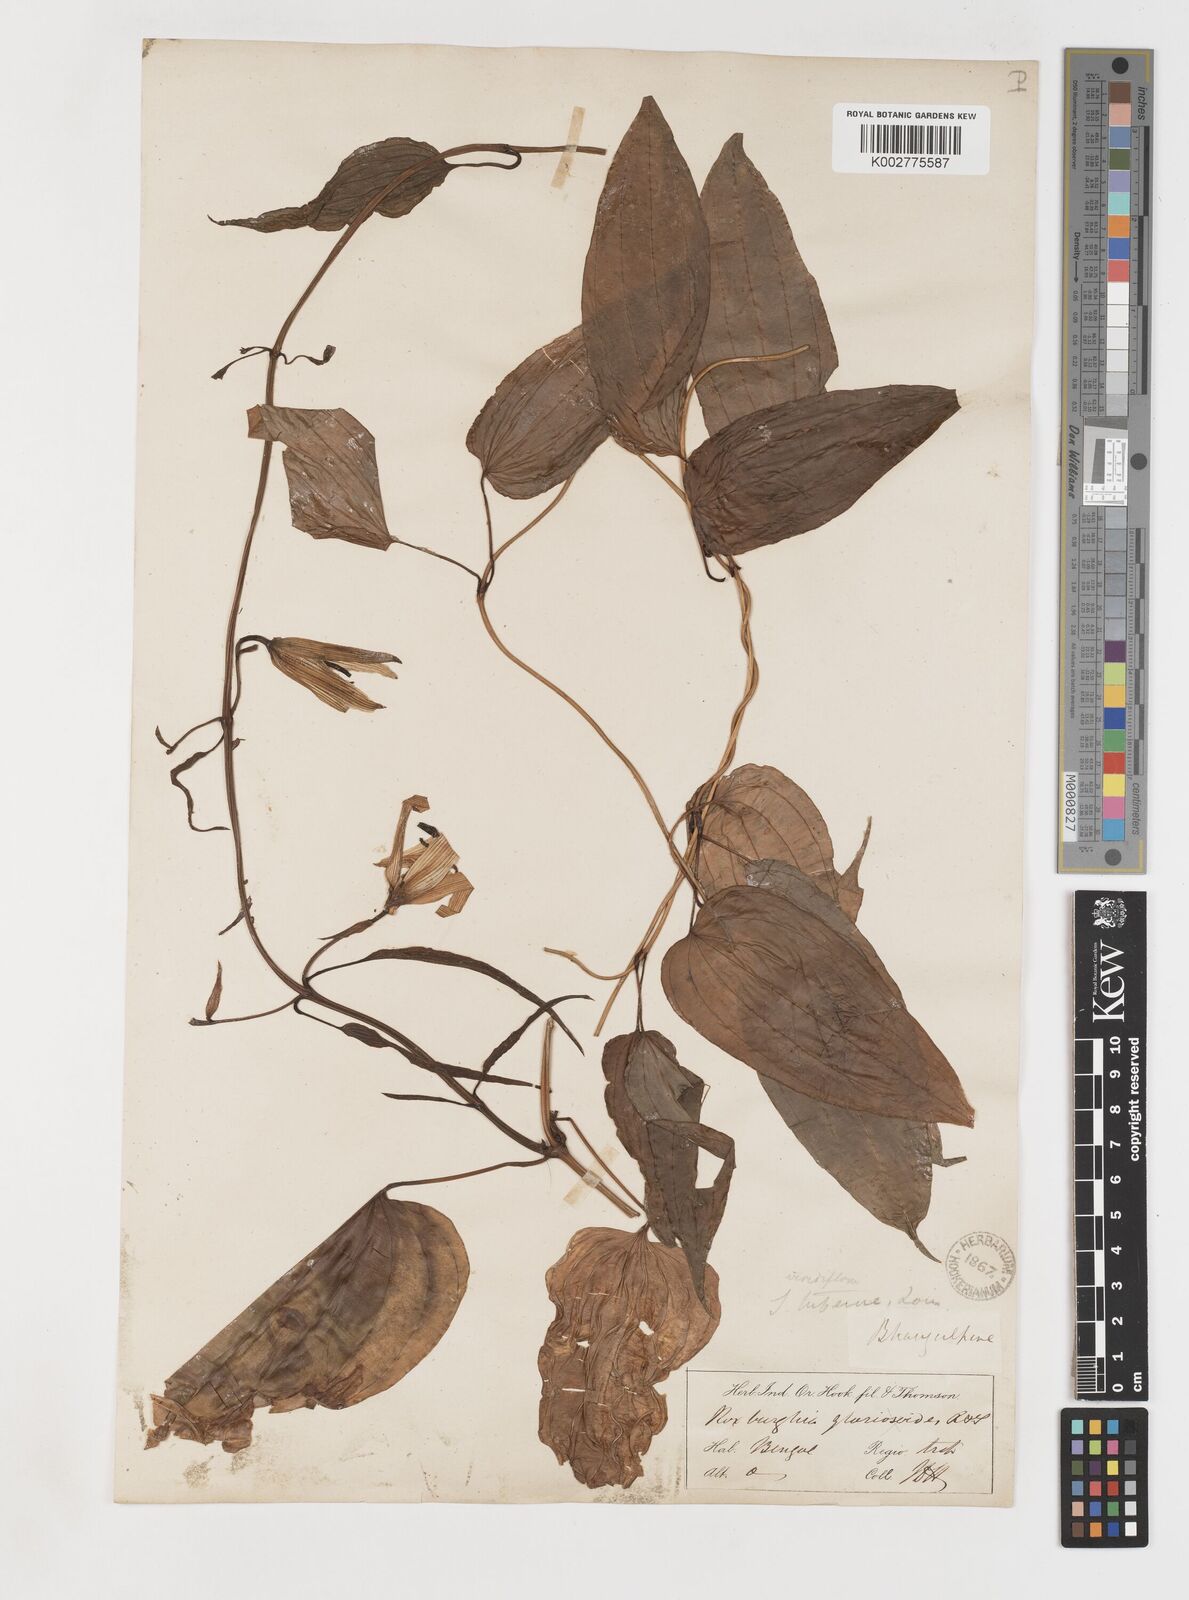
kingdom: Plantae
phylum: Tracheophyta
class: Liliopsida
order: Pandanales
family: Stemonaceae
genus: Stemona
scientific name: Stemona tuberosa
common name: Stemona
